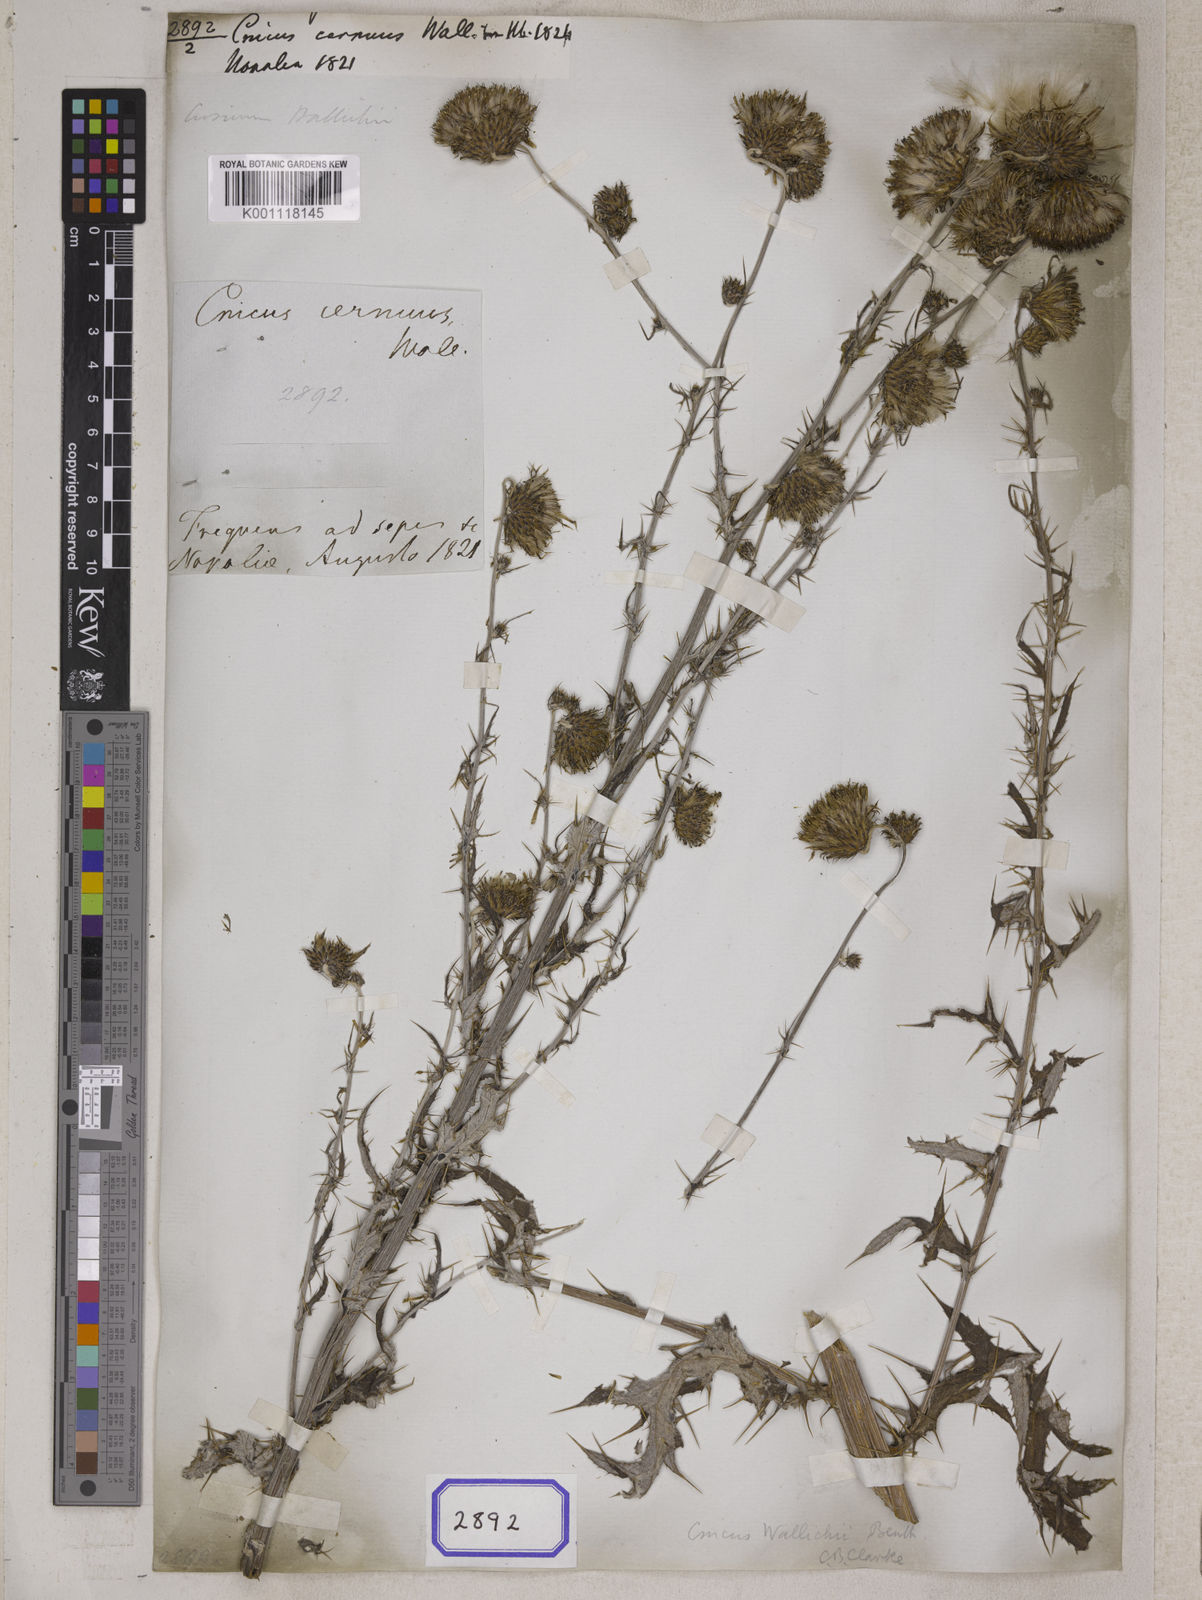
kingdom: Plantae
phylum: Tracheophyta
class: Magnoliopsida
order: Asterales
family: Asteraceae
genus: Cirsium
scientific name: Cirsium wallichii
